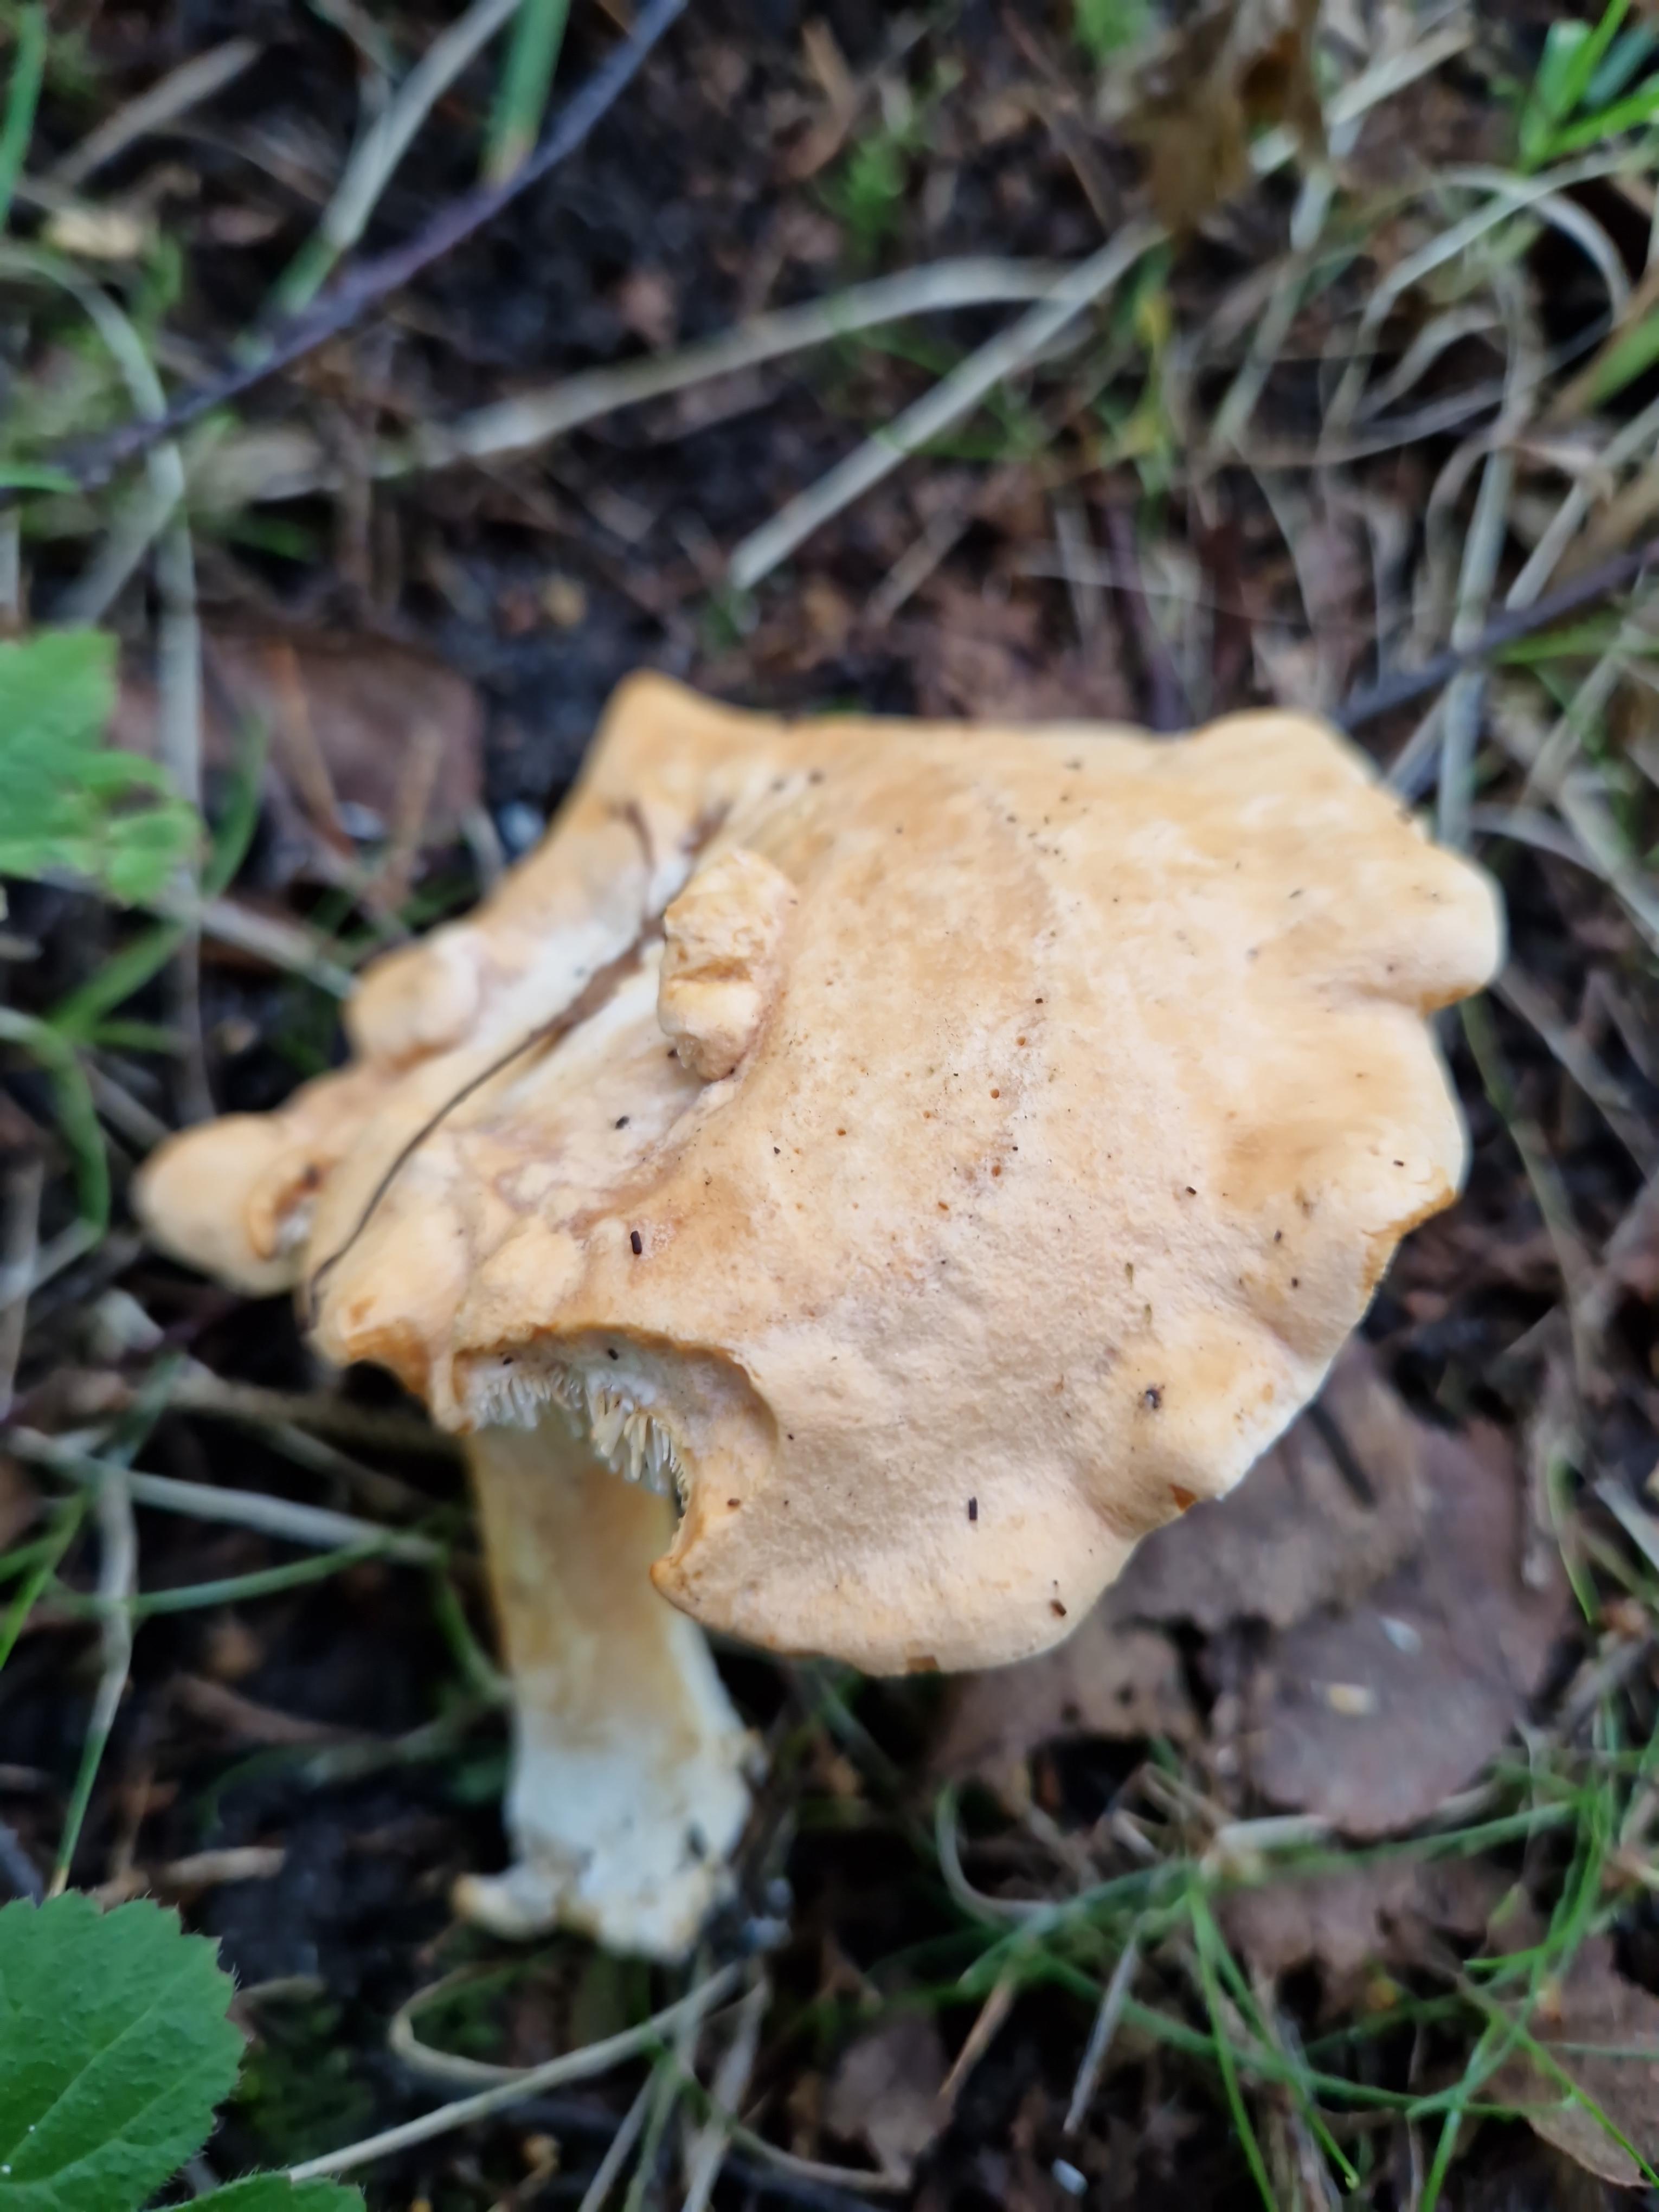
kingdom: Fungi
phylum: Basidiomycota
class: Agaricomycetes
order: Cantharellales
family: Hydnaceae
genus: Hydnum
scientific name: Hydnum
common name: pigsvamp
